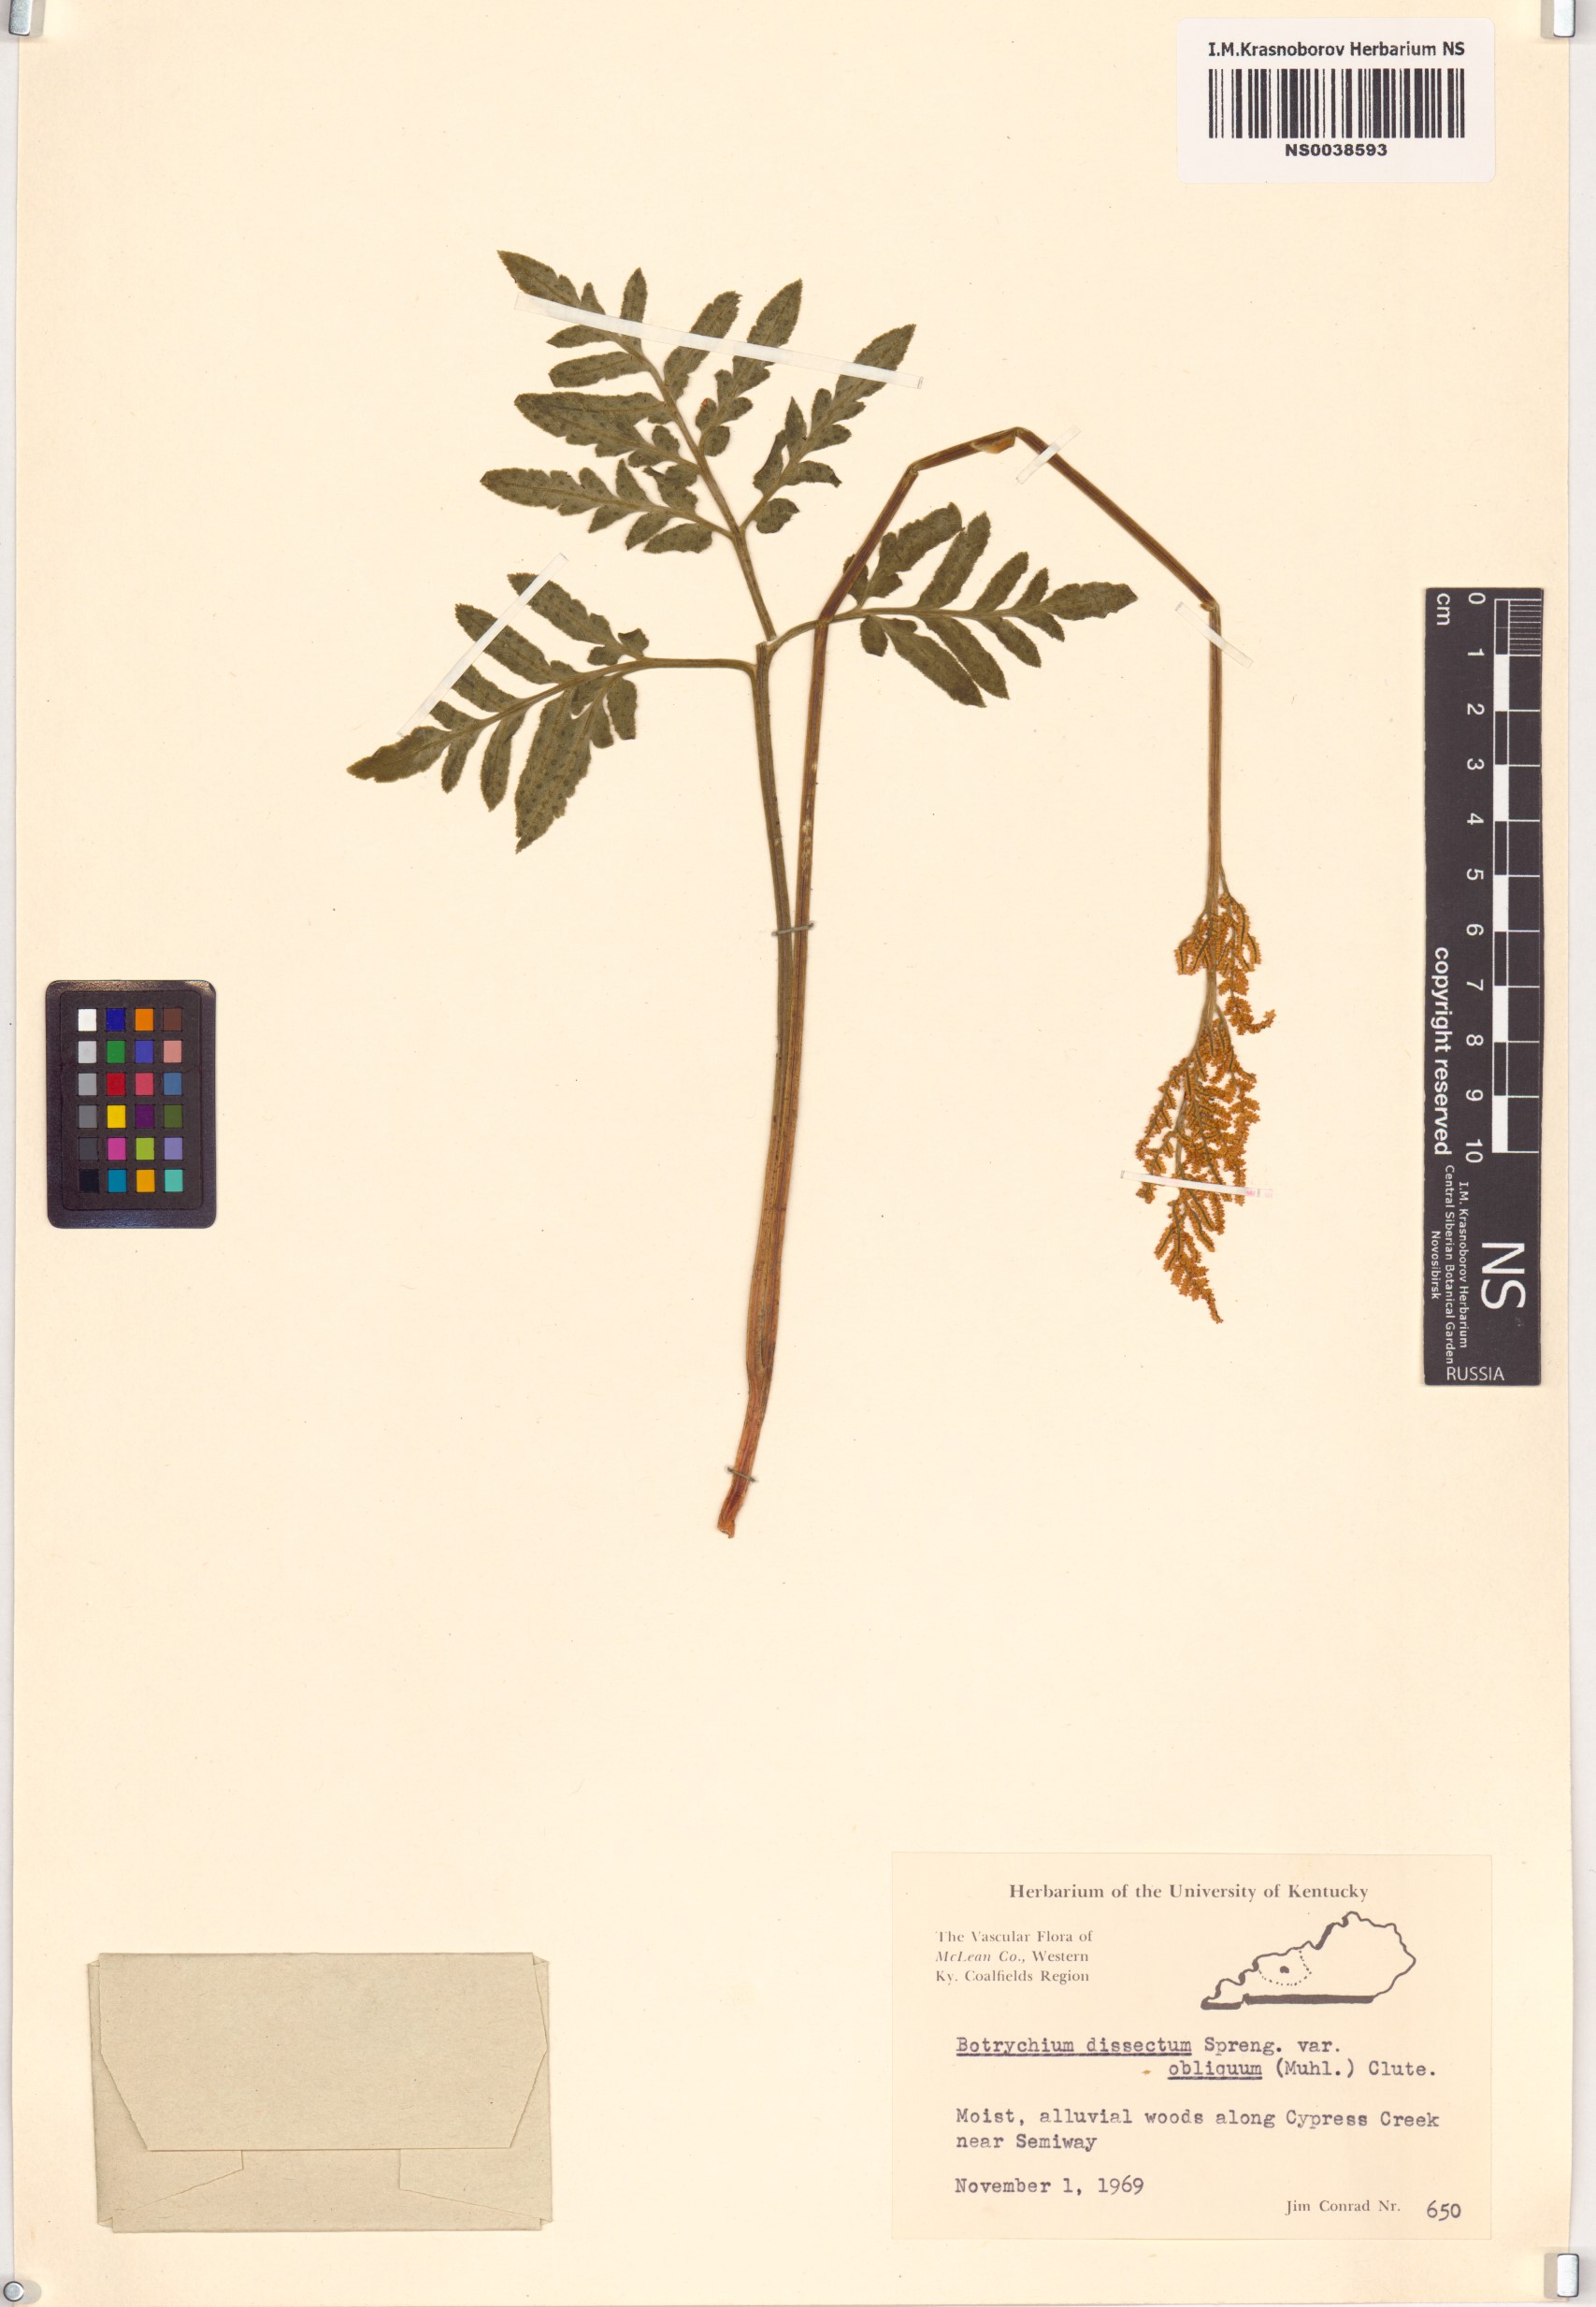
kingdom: Plantae
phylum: Tracheophyta
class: Polypodiopsida
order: Ophioglossales
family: Ophioglossaceae
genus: Sceptridium
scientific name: Sceptridium dissectum
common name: Cut-leaved grapefern
